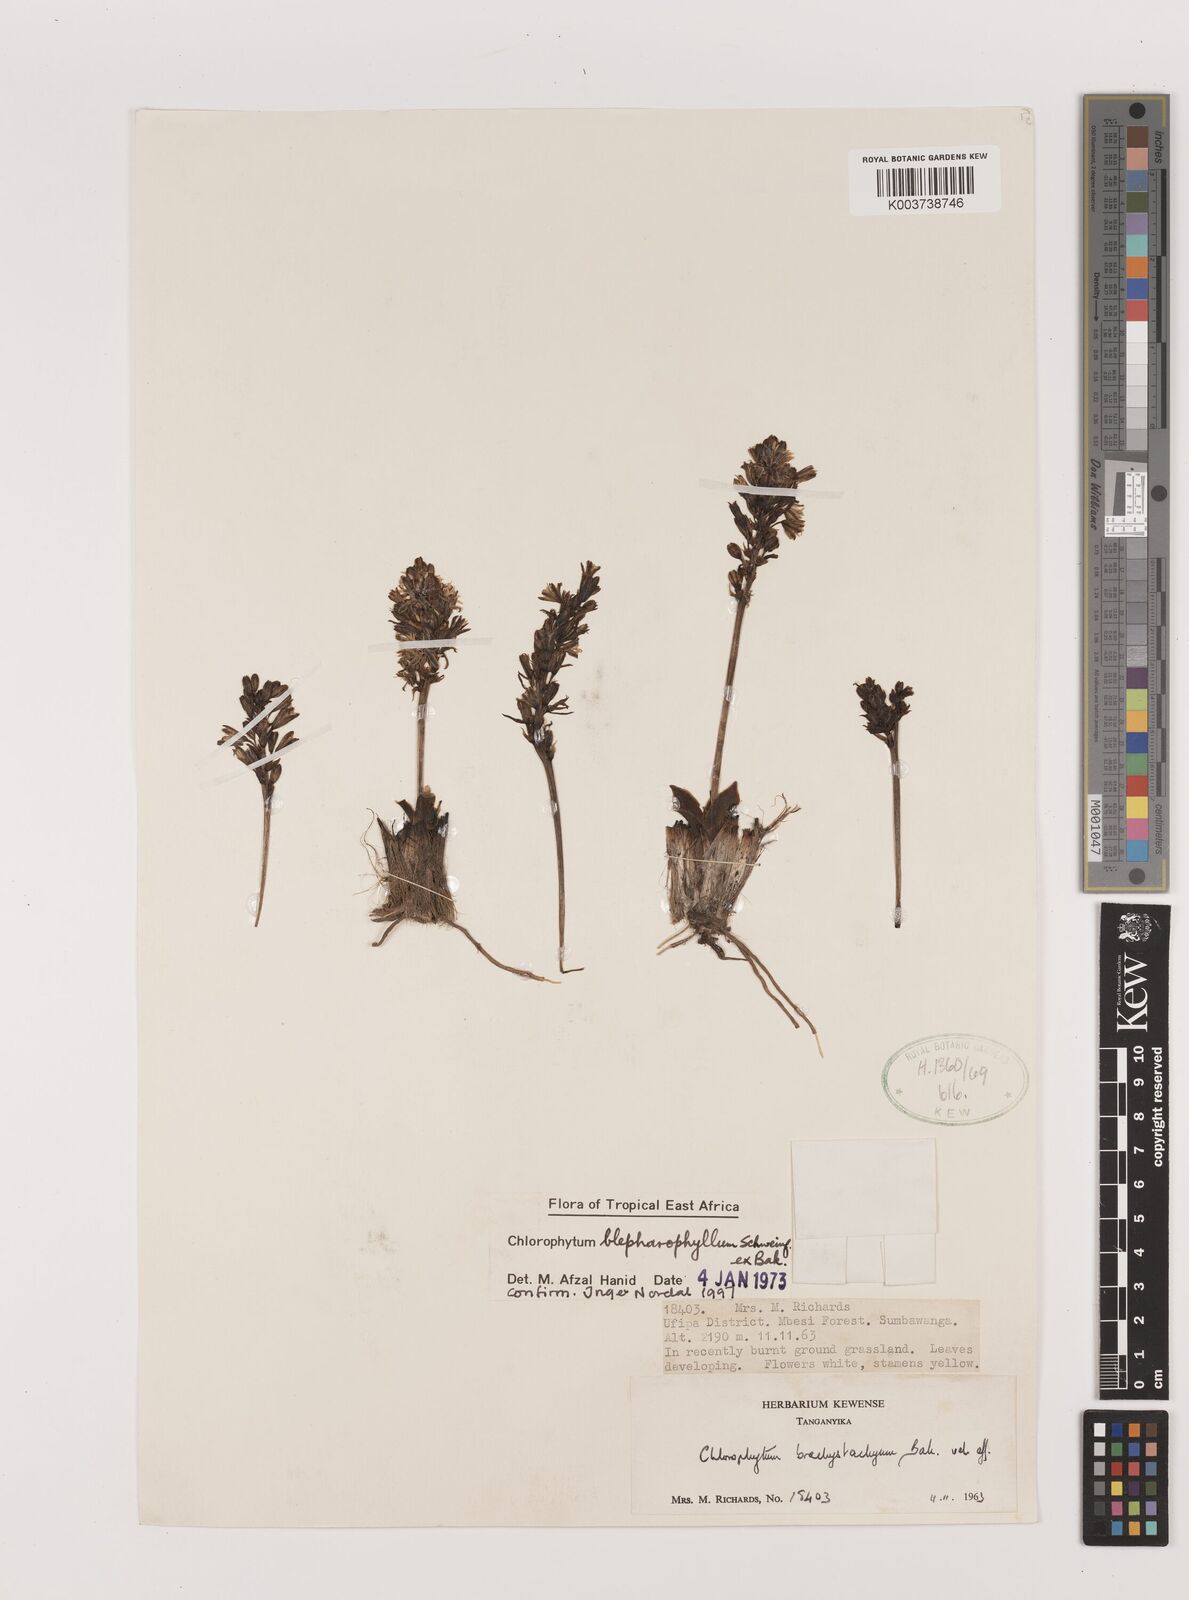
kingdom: Plantae
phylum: Tracheophyta
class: Liliopsida
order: Asparagales
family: Asparagaceae
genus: Chlorophytum
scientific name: Chlorophytum blepharophyllum
